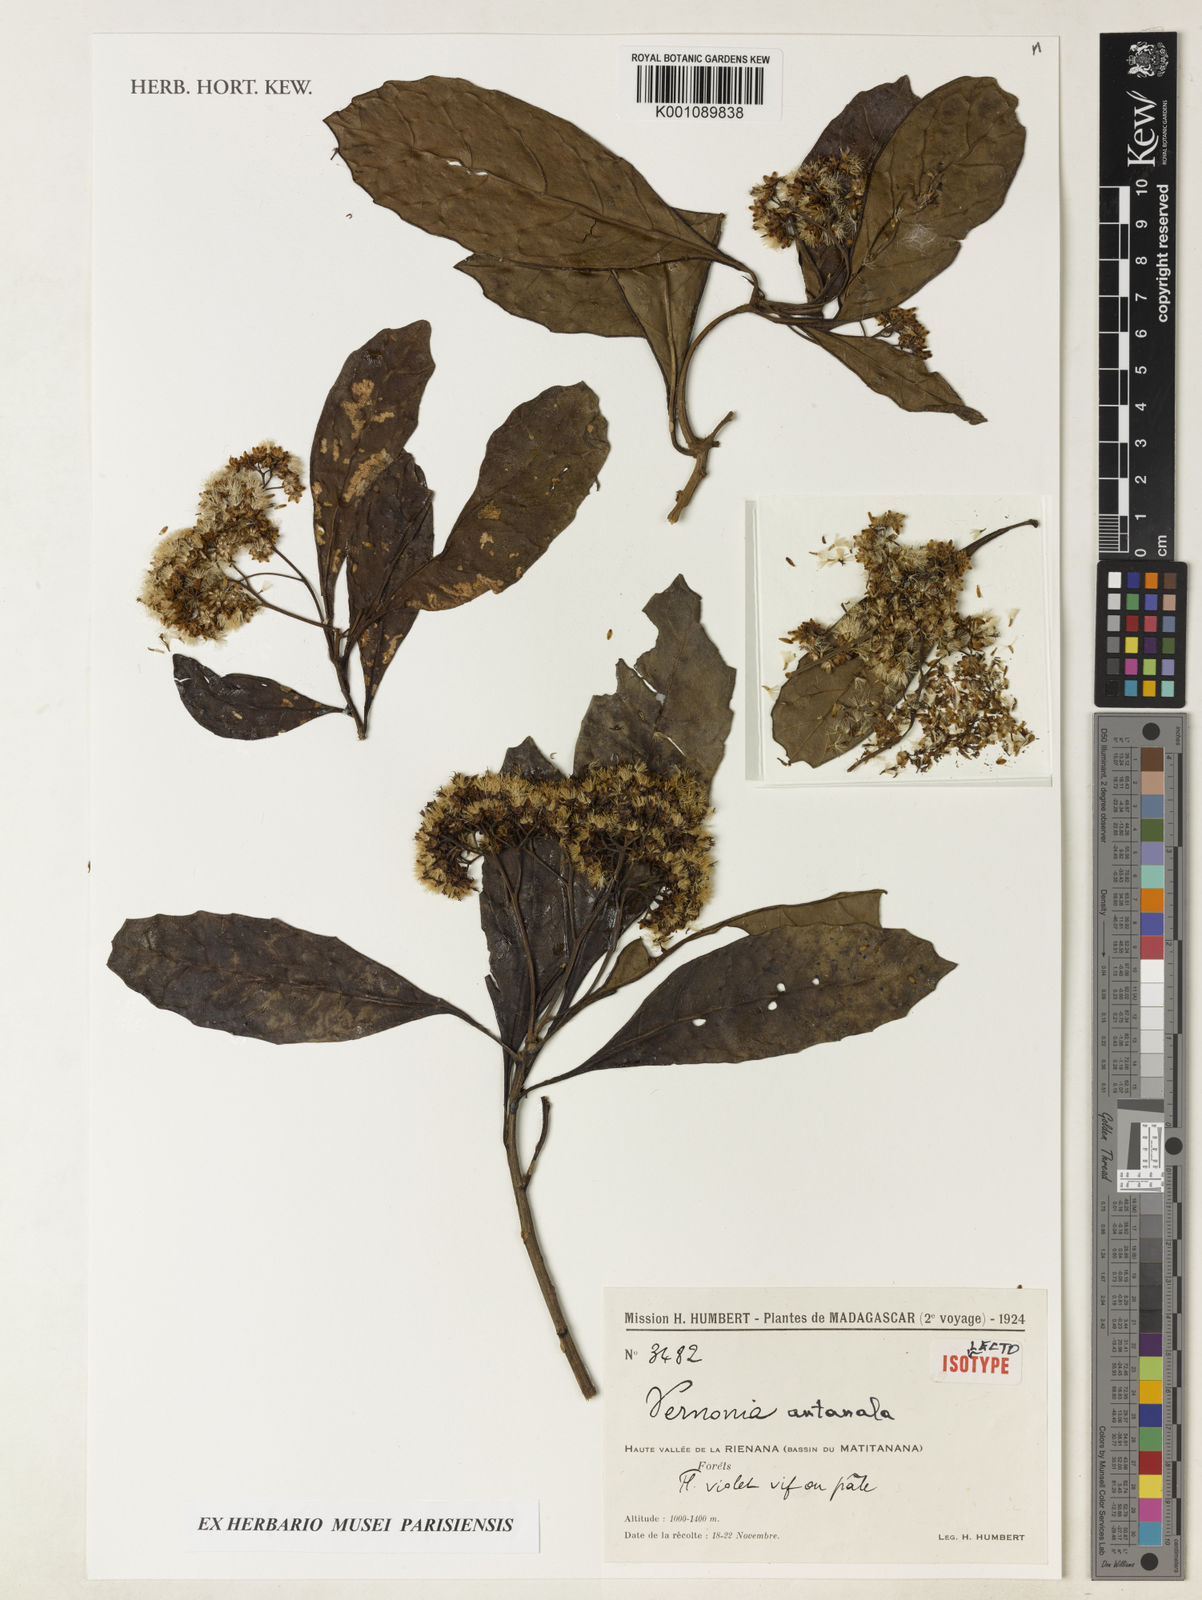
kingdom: Plantae
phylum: Tracheophyta
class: Magnoliopsida
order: Asterales
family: Asteraceae
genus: Gymnanthemum
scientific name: Gymnanthemum antanalus
